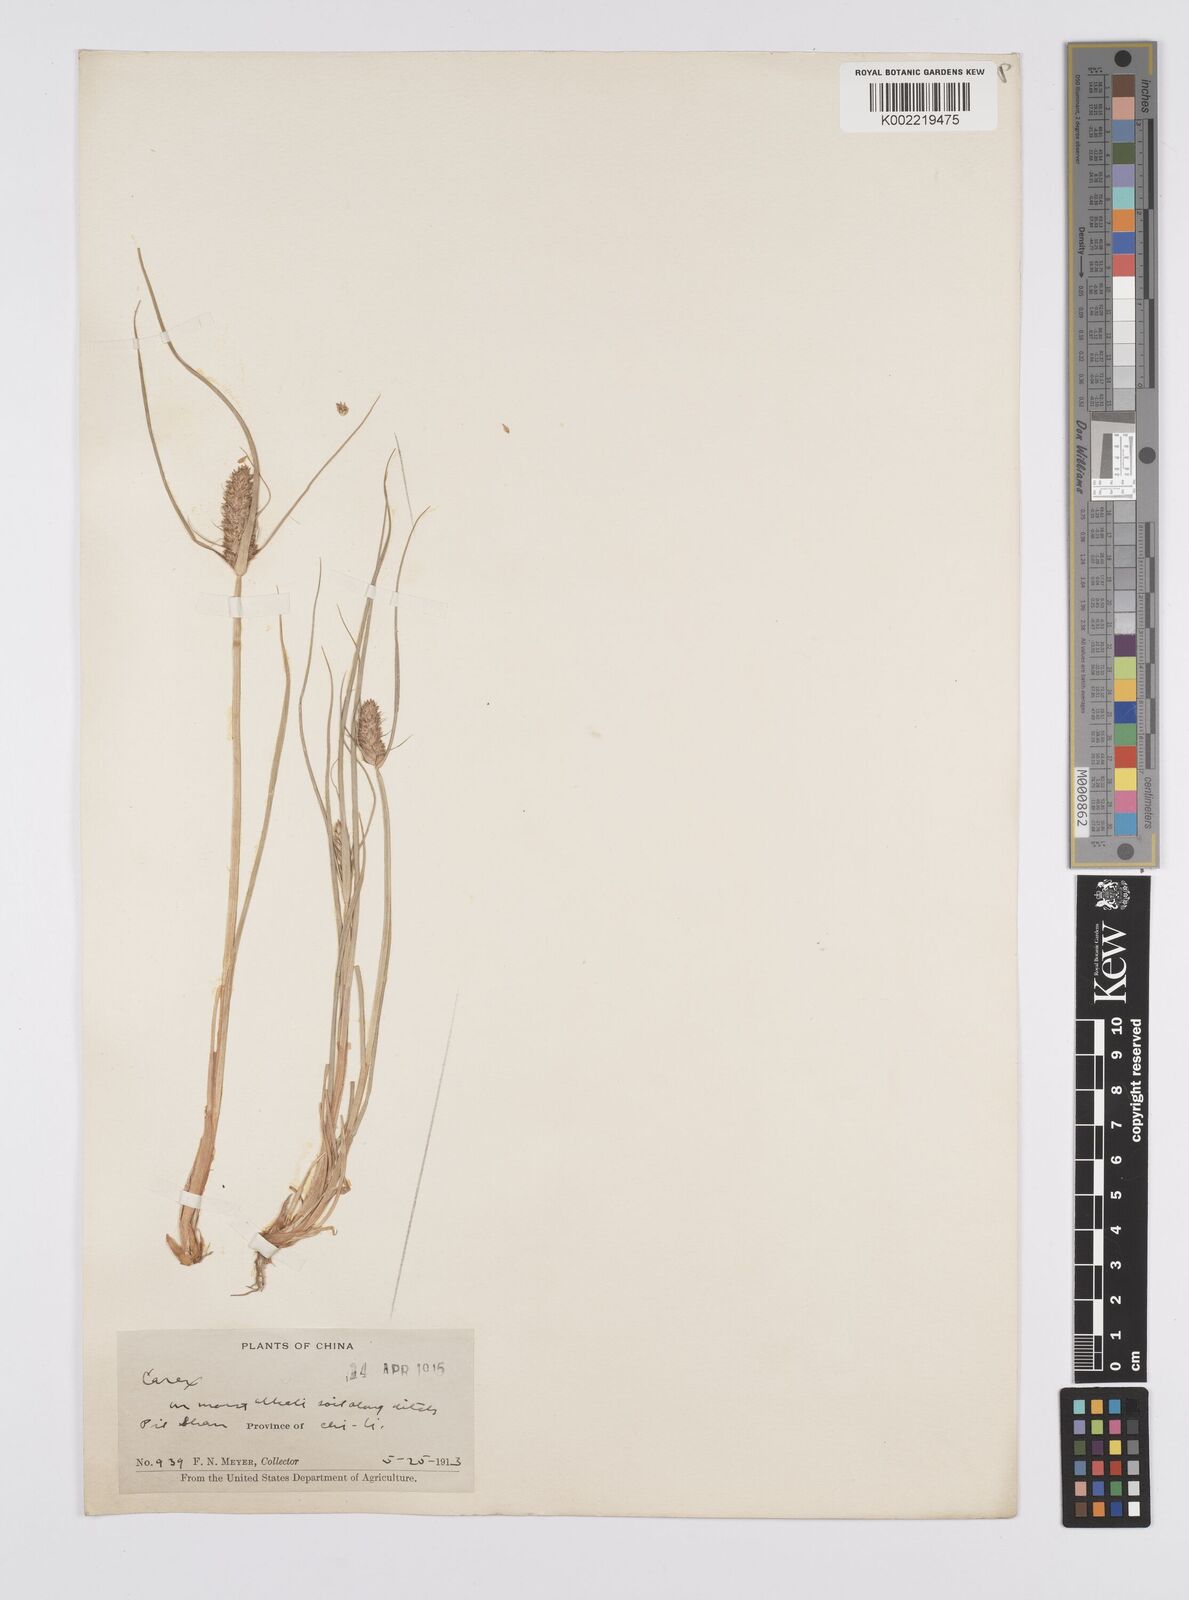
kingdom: Plantae
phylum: Tracheophyta
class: Liliopsida
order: Poales
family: Cyperaceae
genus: Carex
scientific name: Carex neurocarpa
